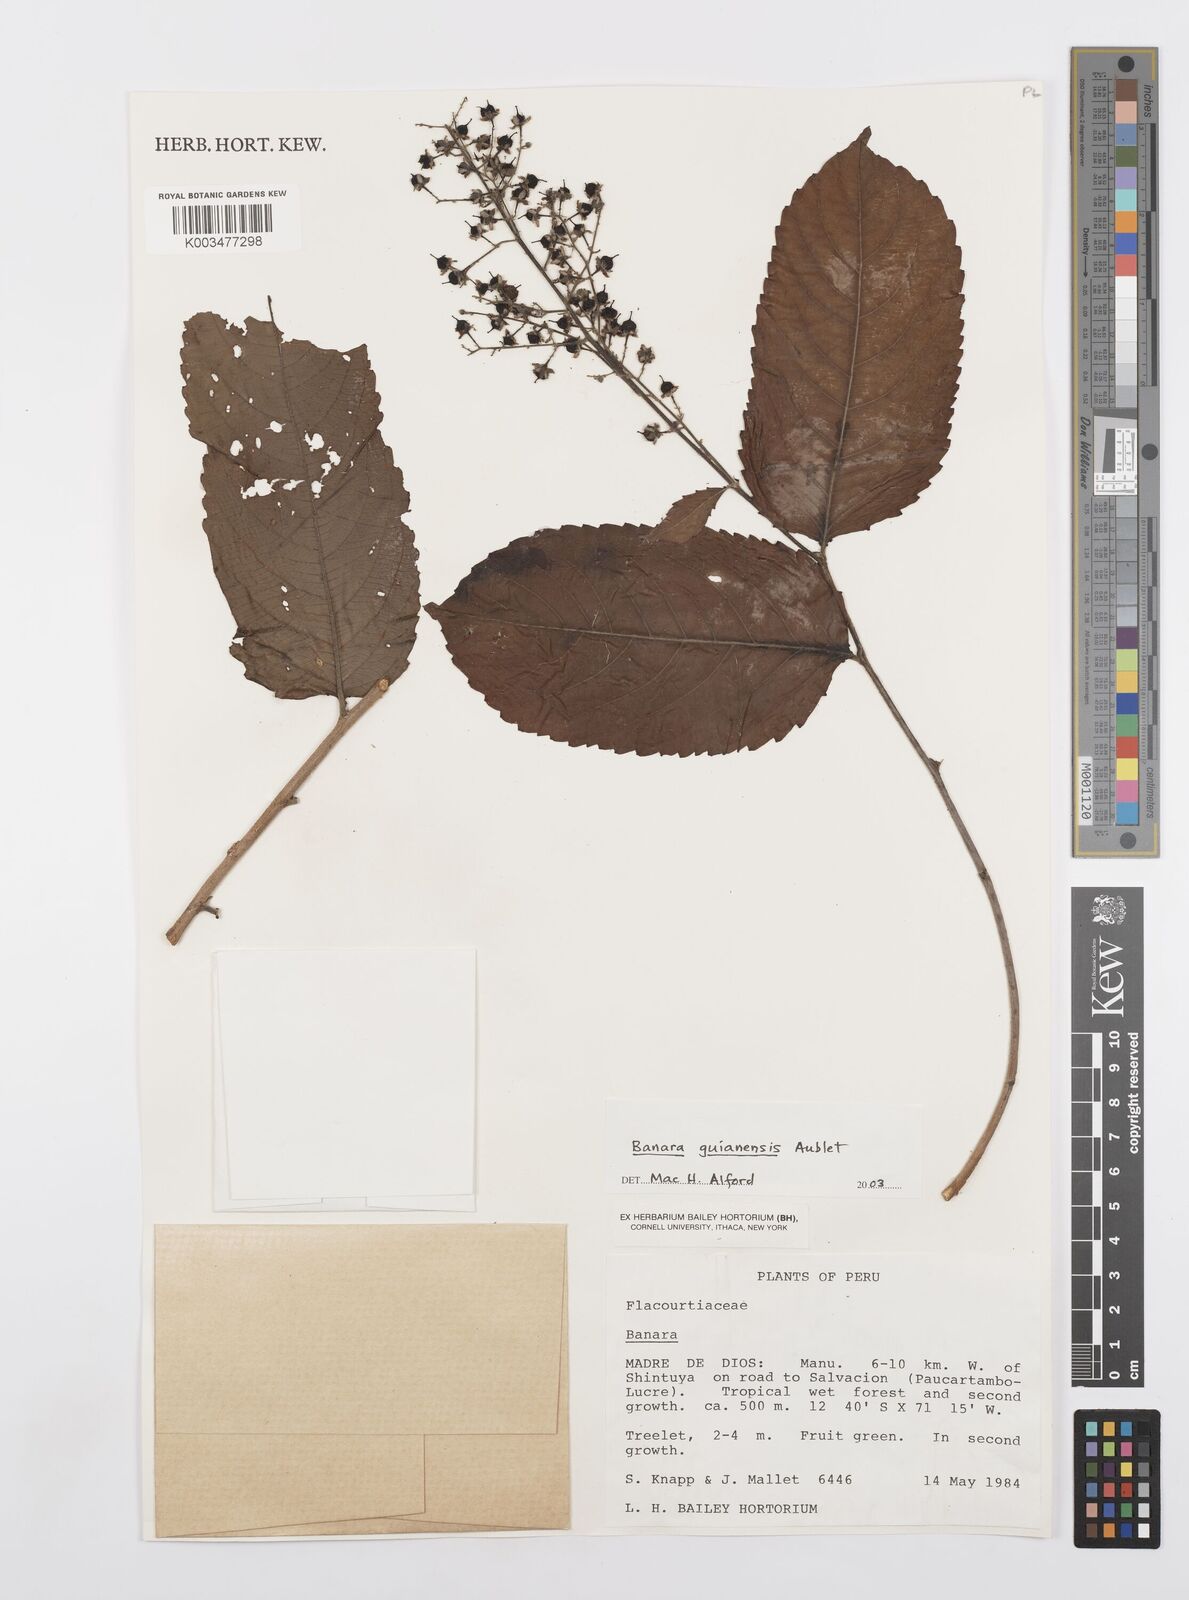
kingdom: Plantae
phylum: Tracheophyta
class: Magnoliopsida
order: Malpighiales
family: Salicaceae
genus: Banara
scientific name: Banara guianensis
